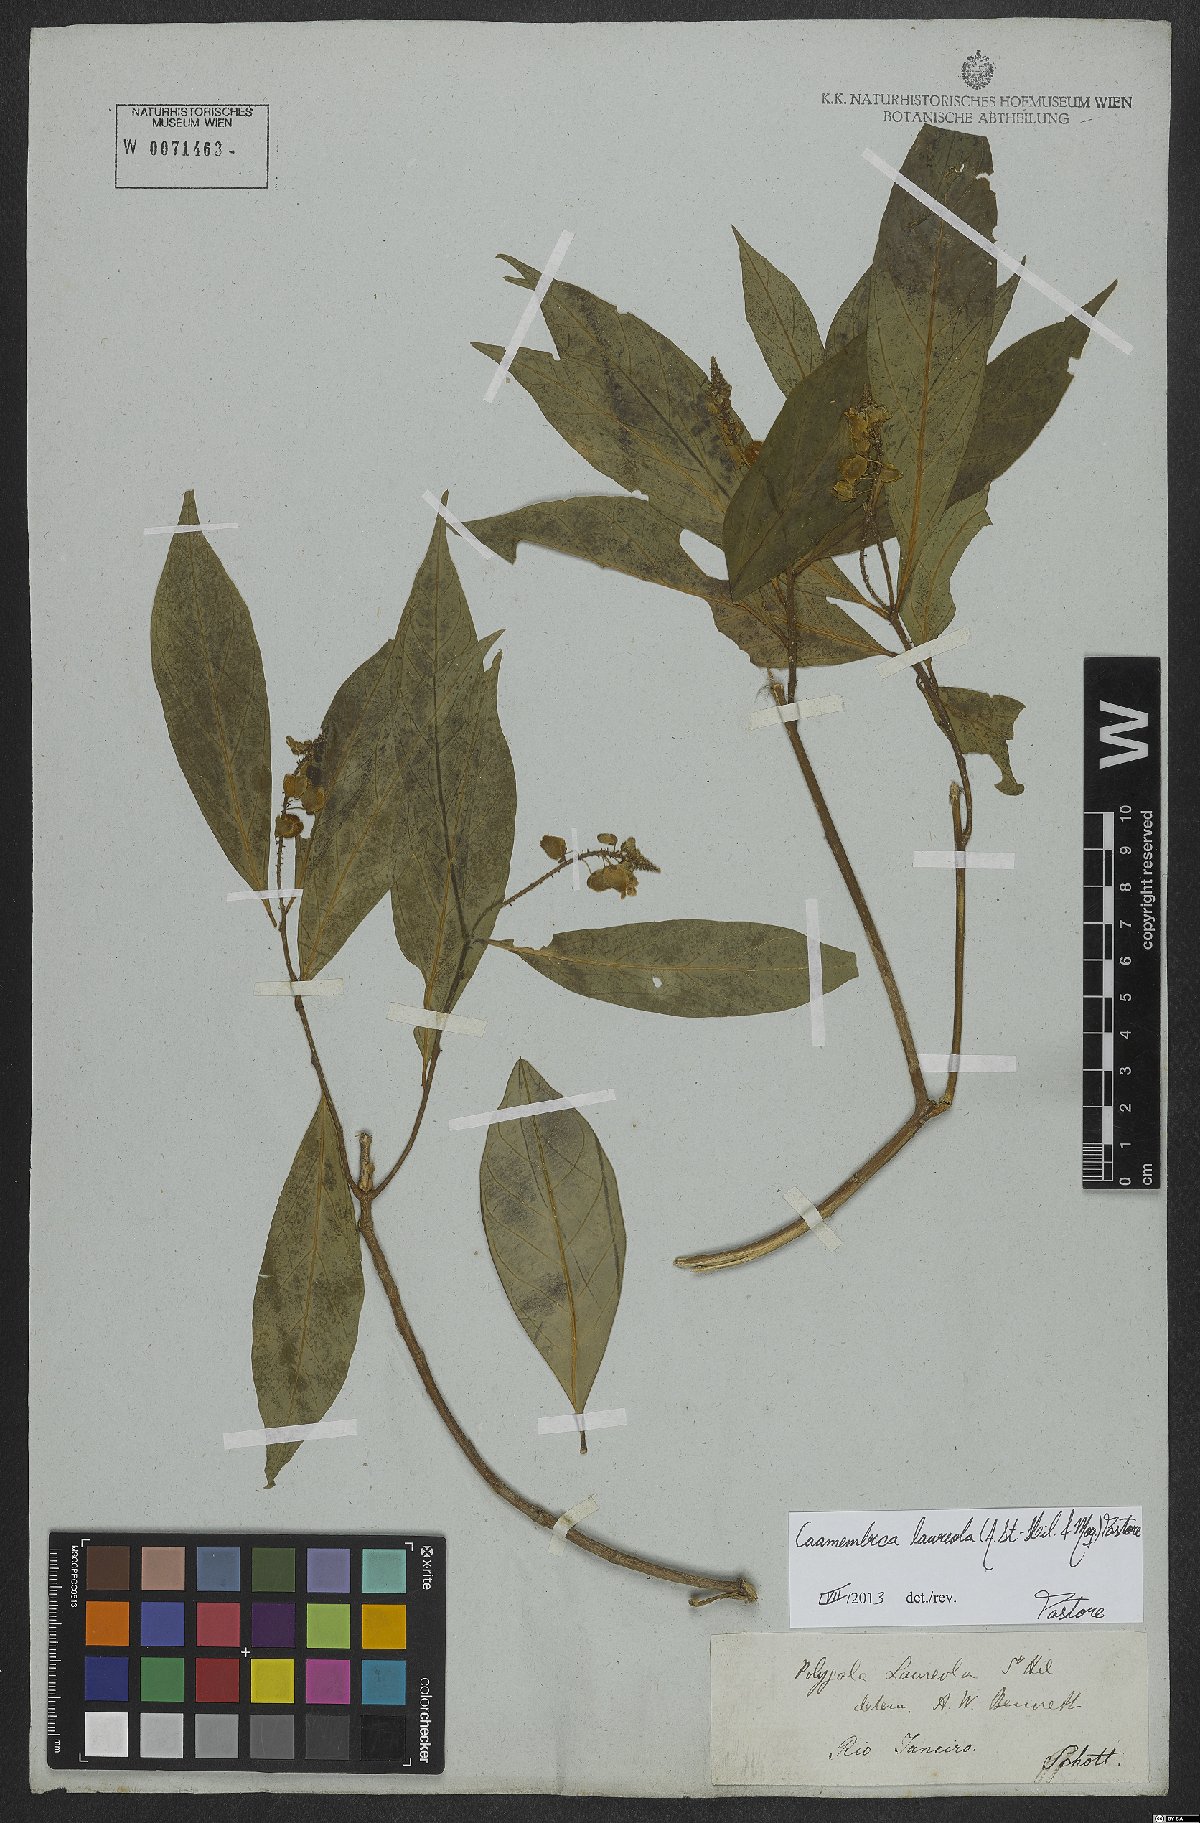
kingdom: Plantae
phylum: Tracheophyta
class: Magnoliopsida
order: Fabales
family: Polygalaceae
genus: Caamembeca
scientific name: Caamembeca salicifolia
